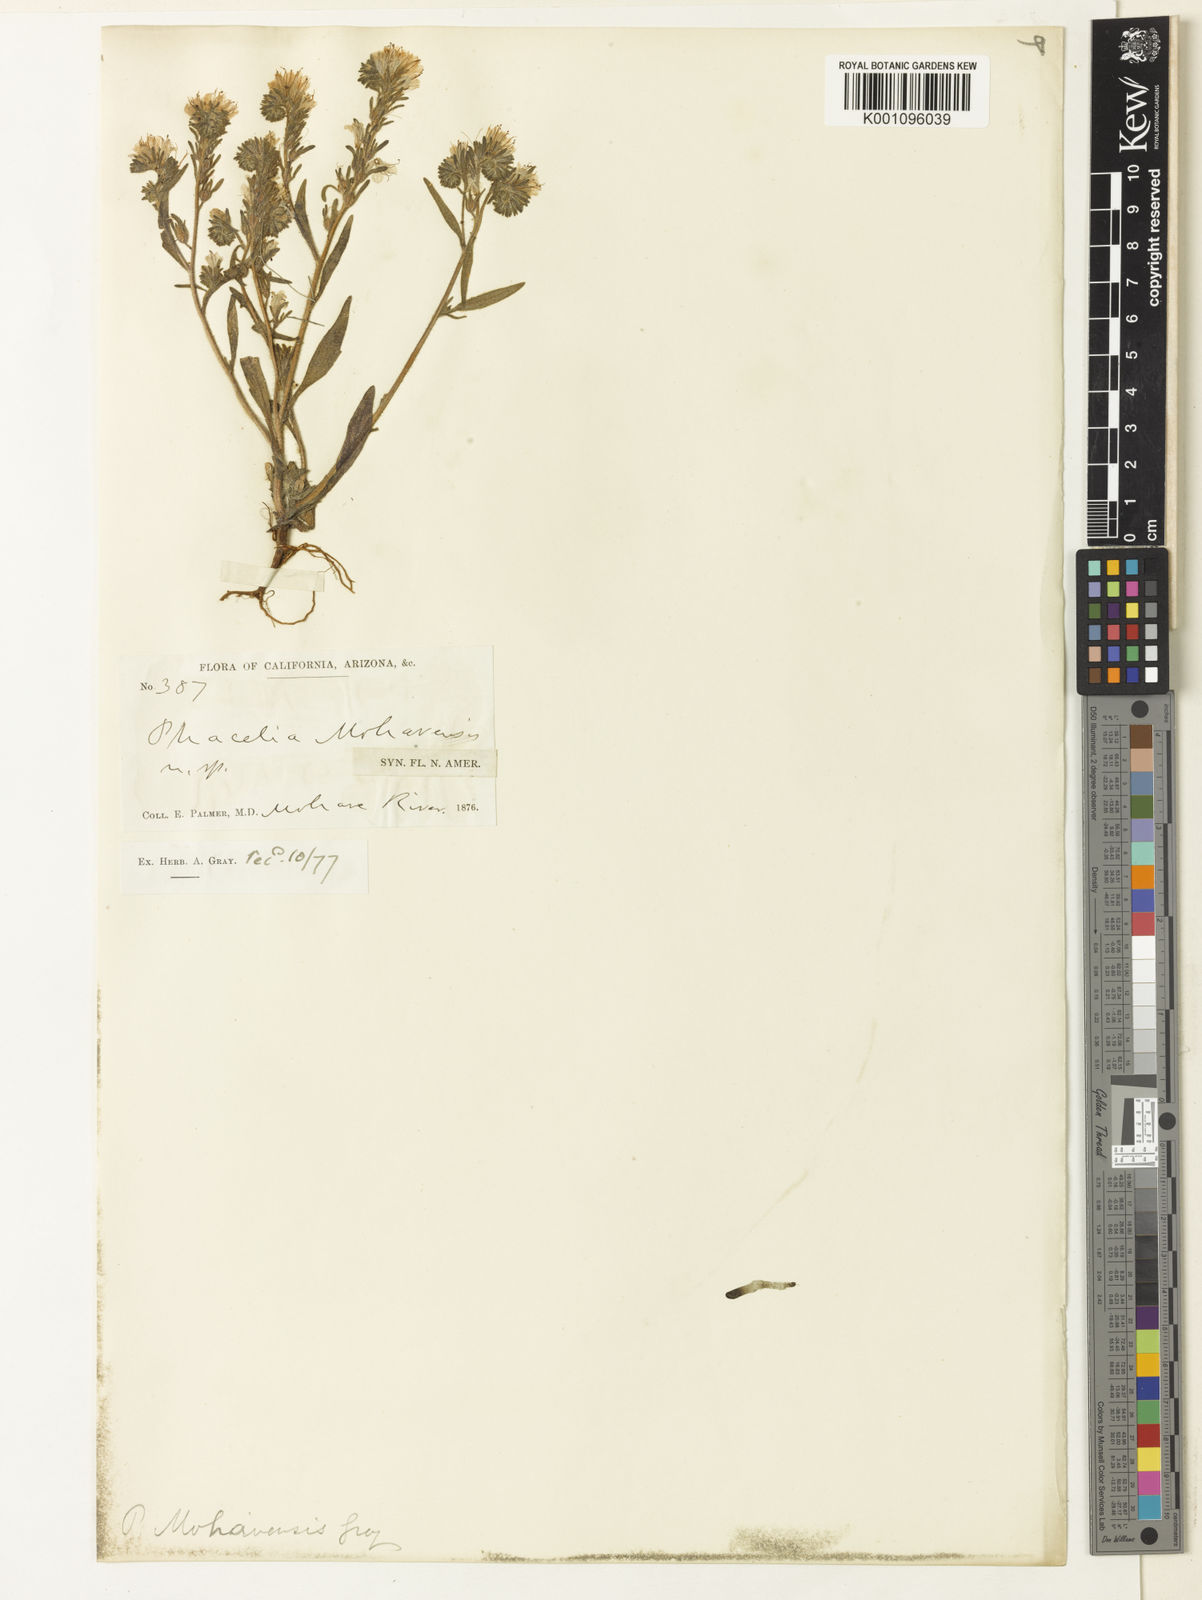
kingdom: Plantae
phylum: Tracheophyta
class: Magnoliopsida
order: Boraginales
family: Hydrophyllaceae
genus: Phacelia
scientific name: Phacelia mohavensis
